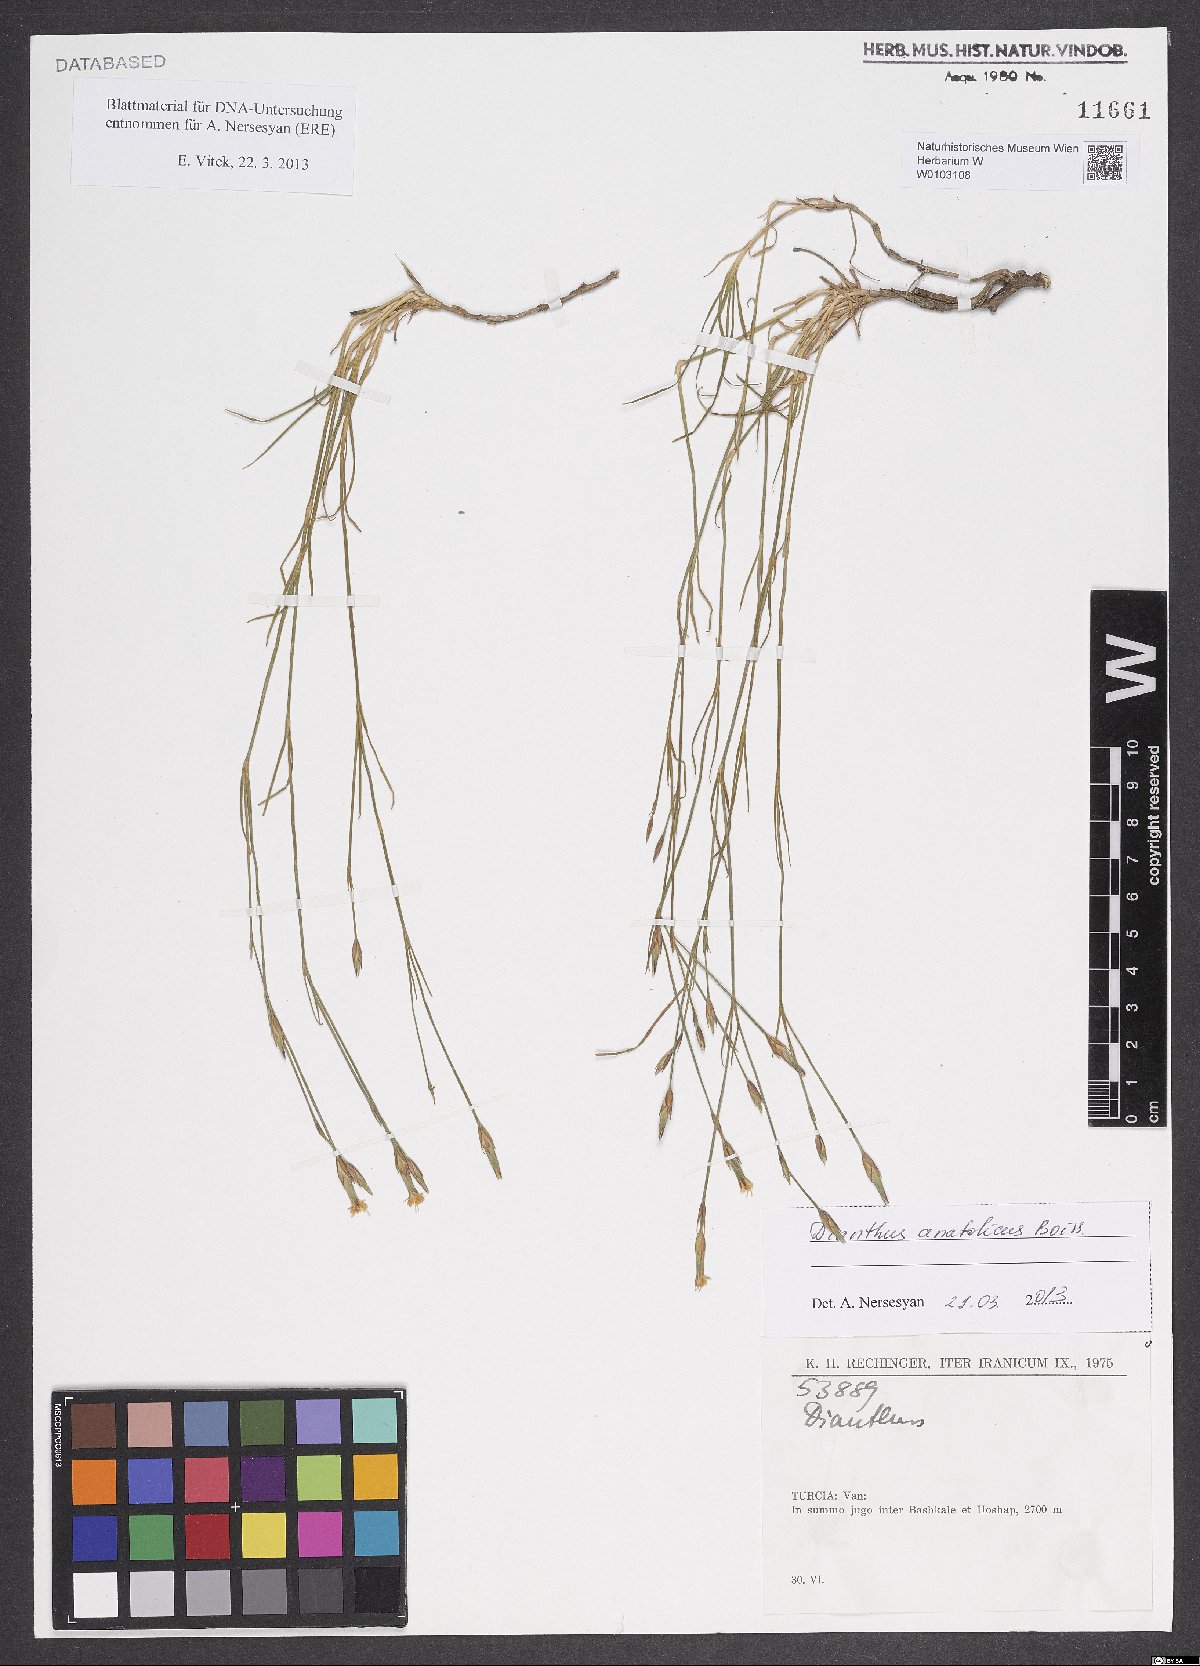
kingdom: Plantae
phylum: Tracheophyta
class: Magnoliopsida
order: Caryophyllales
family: Caryophyllaceae
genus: Dianthus
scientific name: Dianthus anatolicus
